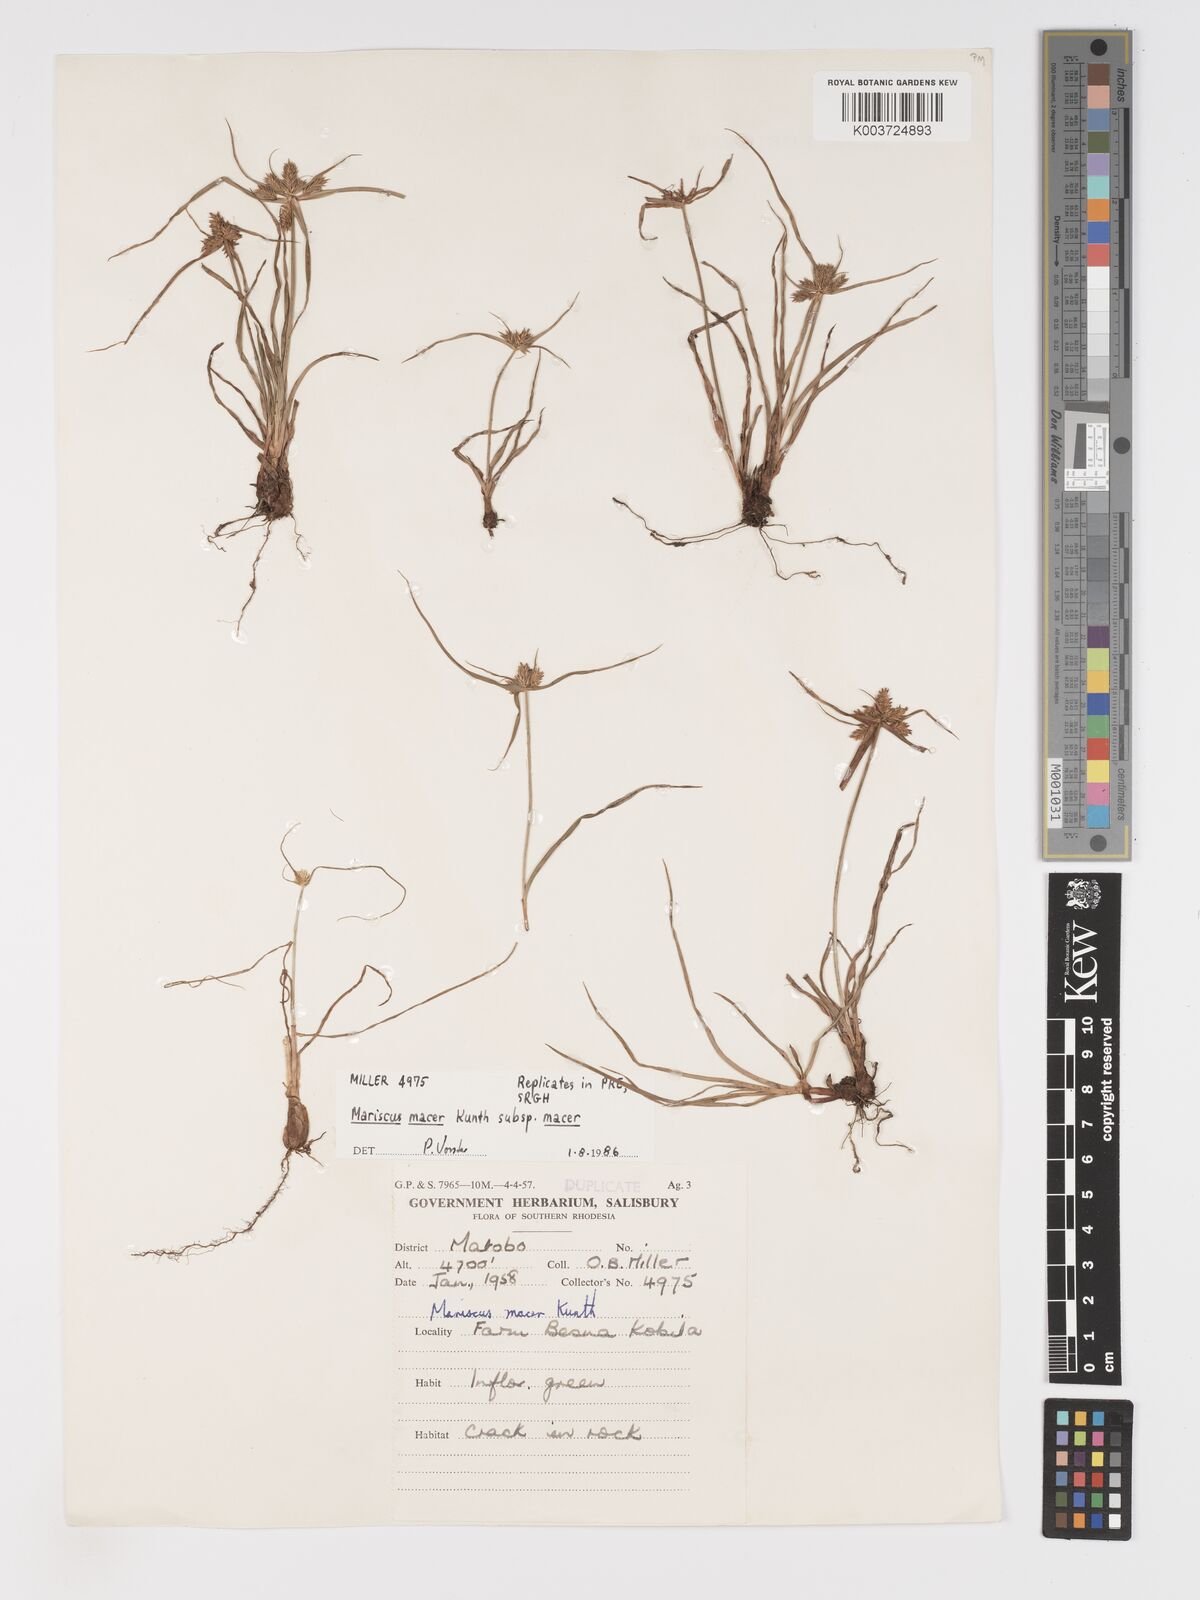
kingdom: Plantae
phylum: Tracheophyta
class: Liliopsida
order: Poales
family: Cyperaceae
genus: Cyperus
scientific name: Cyperus pseudoflavus
